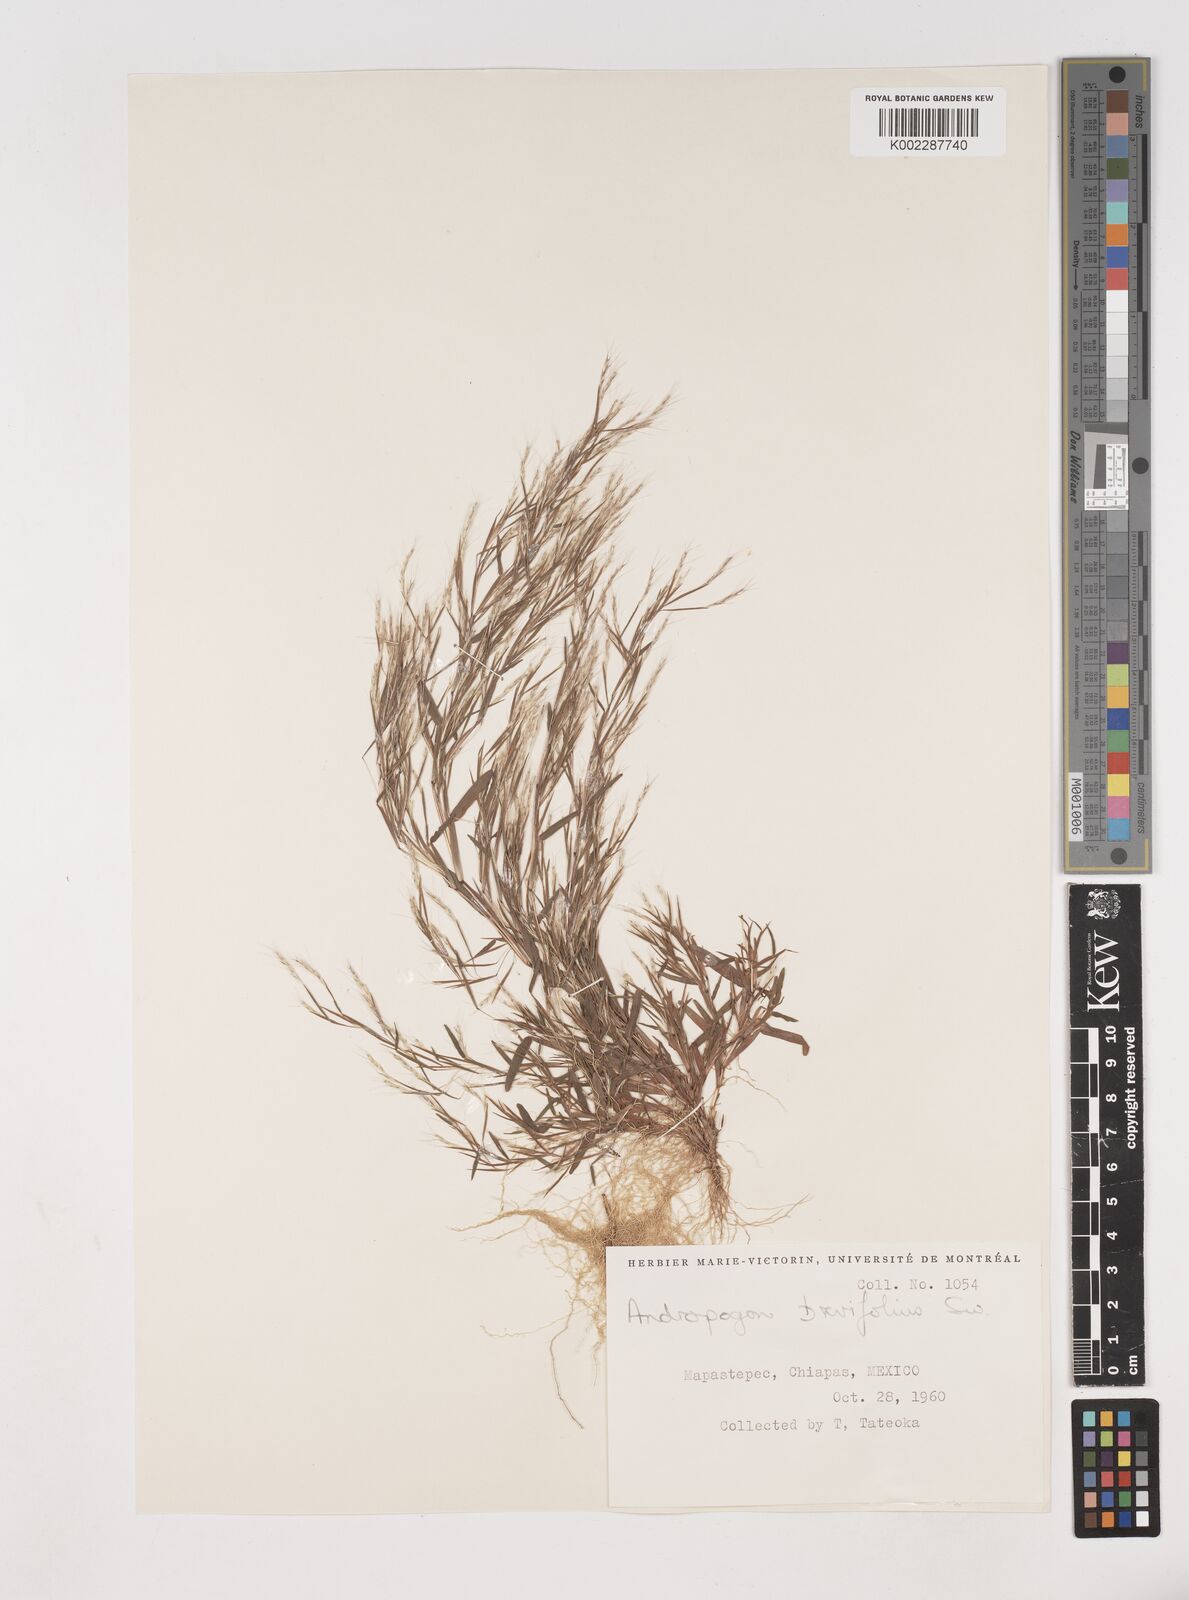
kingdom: Plantae
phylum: Tracheophyta
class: Liliopsida
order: Poales
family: Poaceae
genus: Schizachyrium
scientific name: Schizachyrium brevifolium
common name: Serillo dulce
